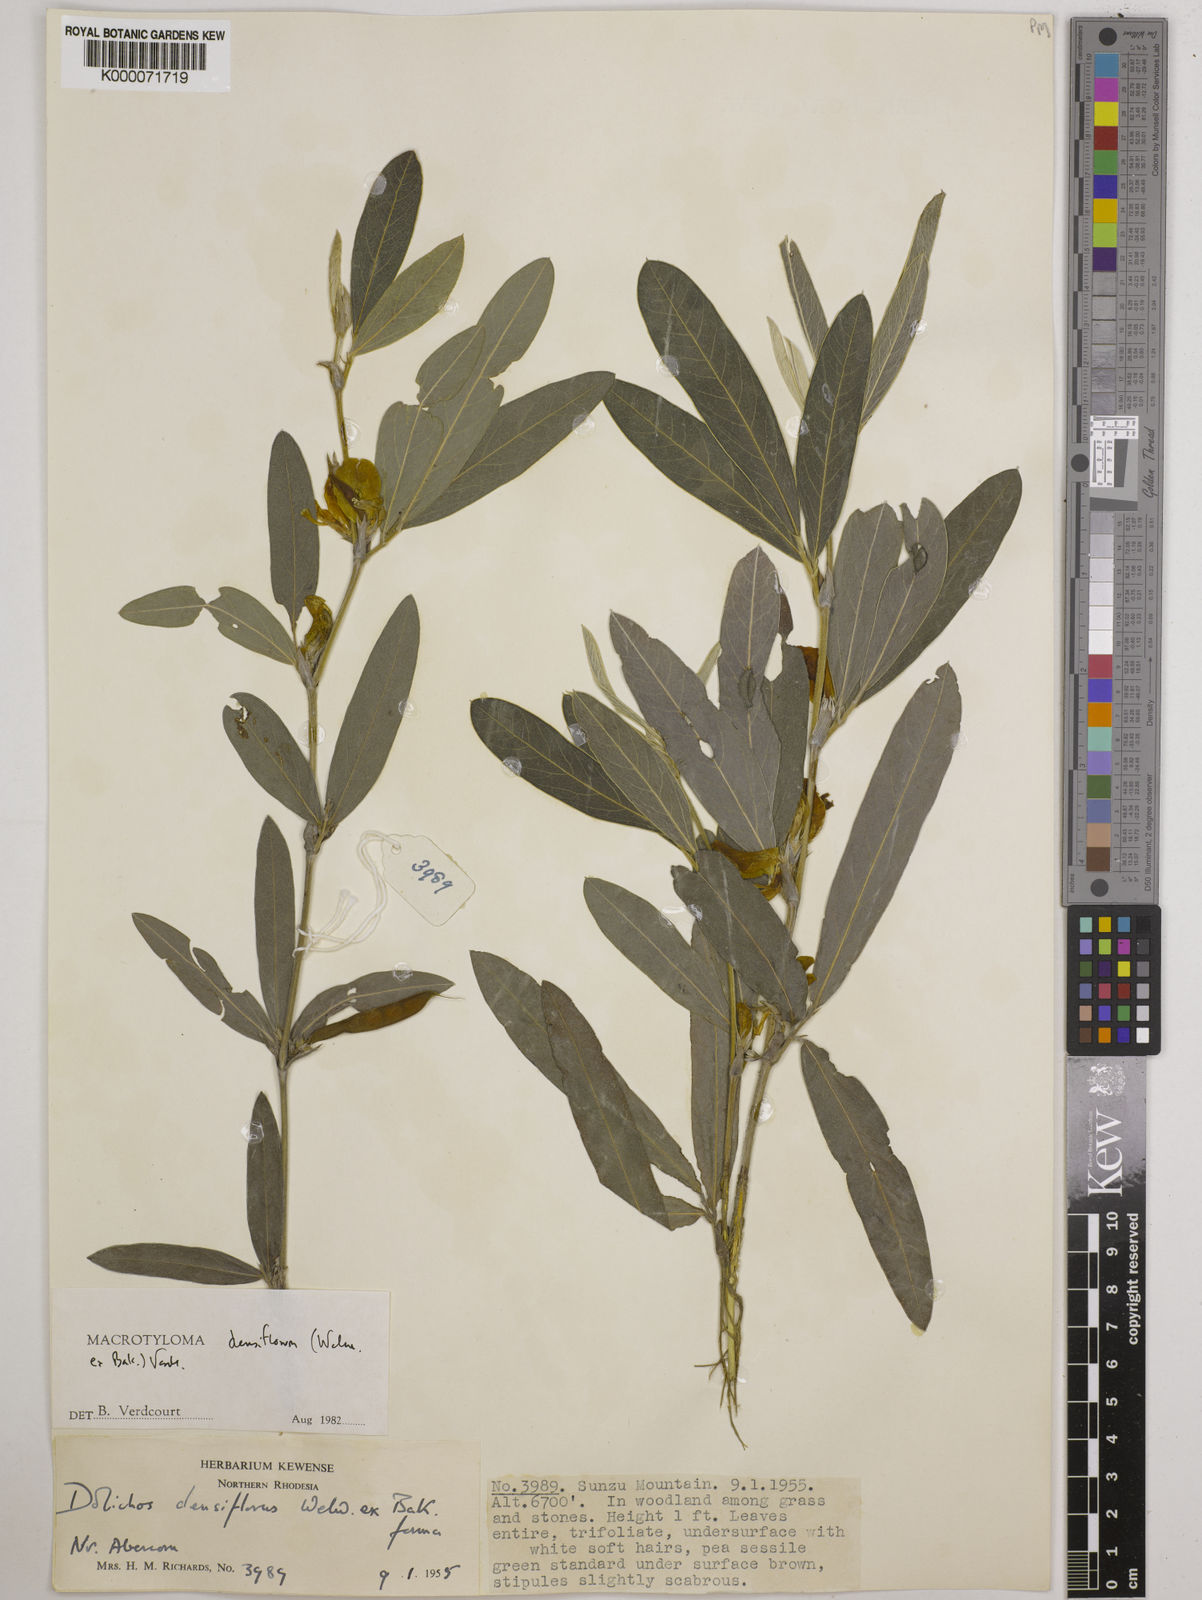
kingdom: Plantae
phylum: Tracheophyta
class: Magnoliopsida
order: Fabales
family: Fabaceae
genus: Macrotyloma
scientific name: Macrotyloma densiflorum
